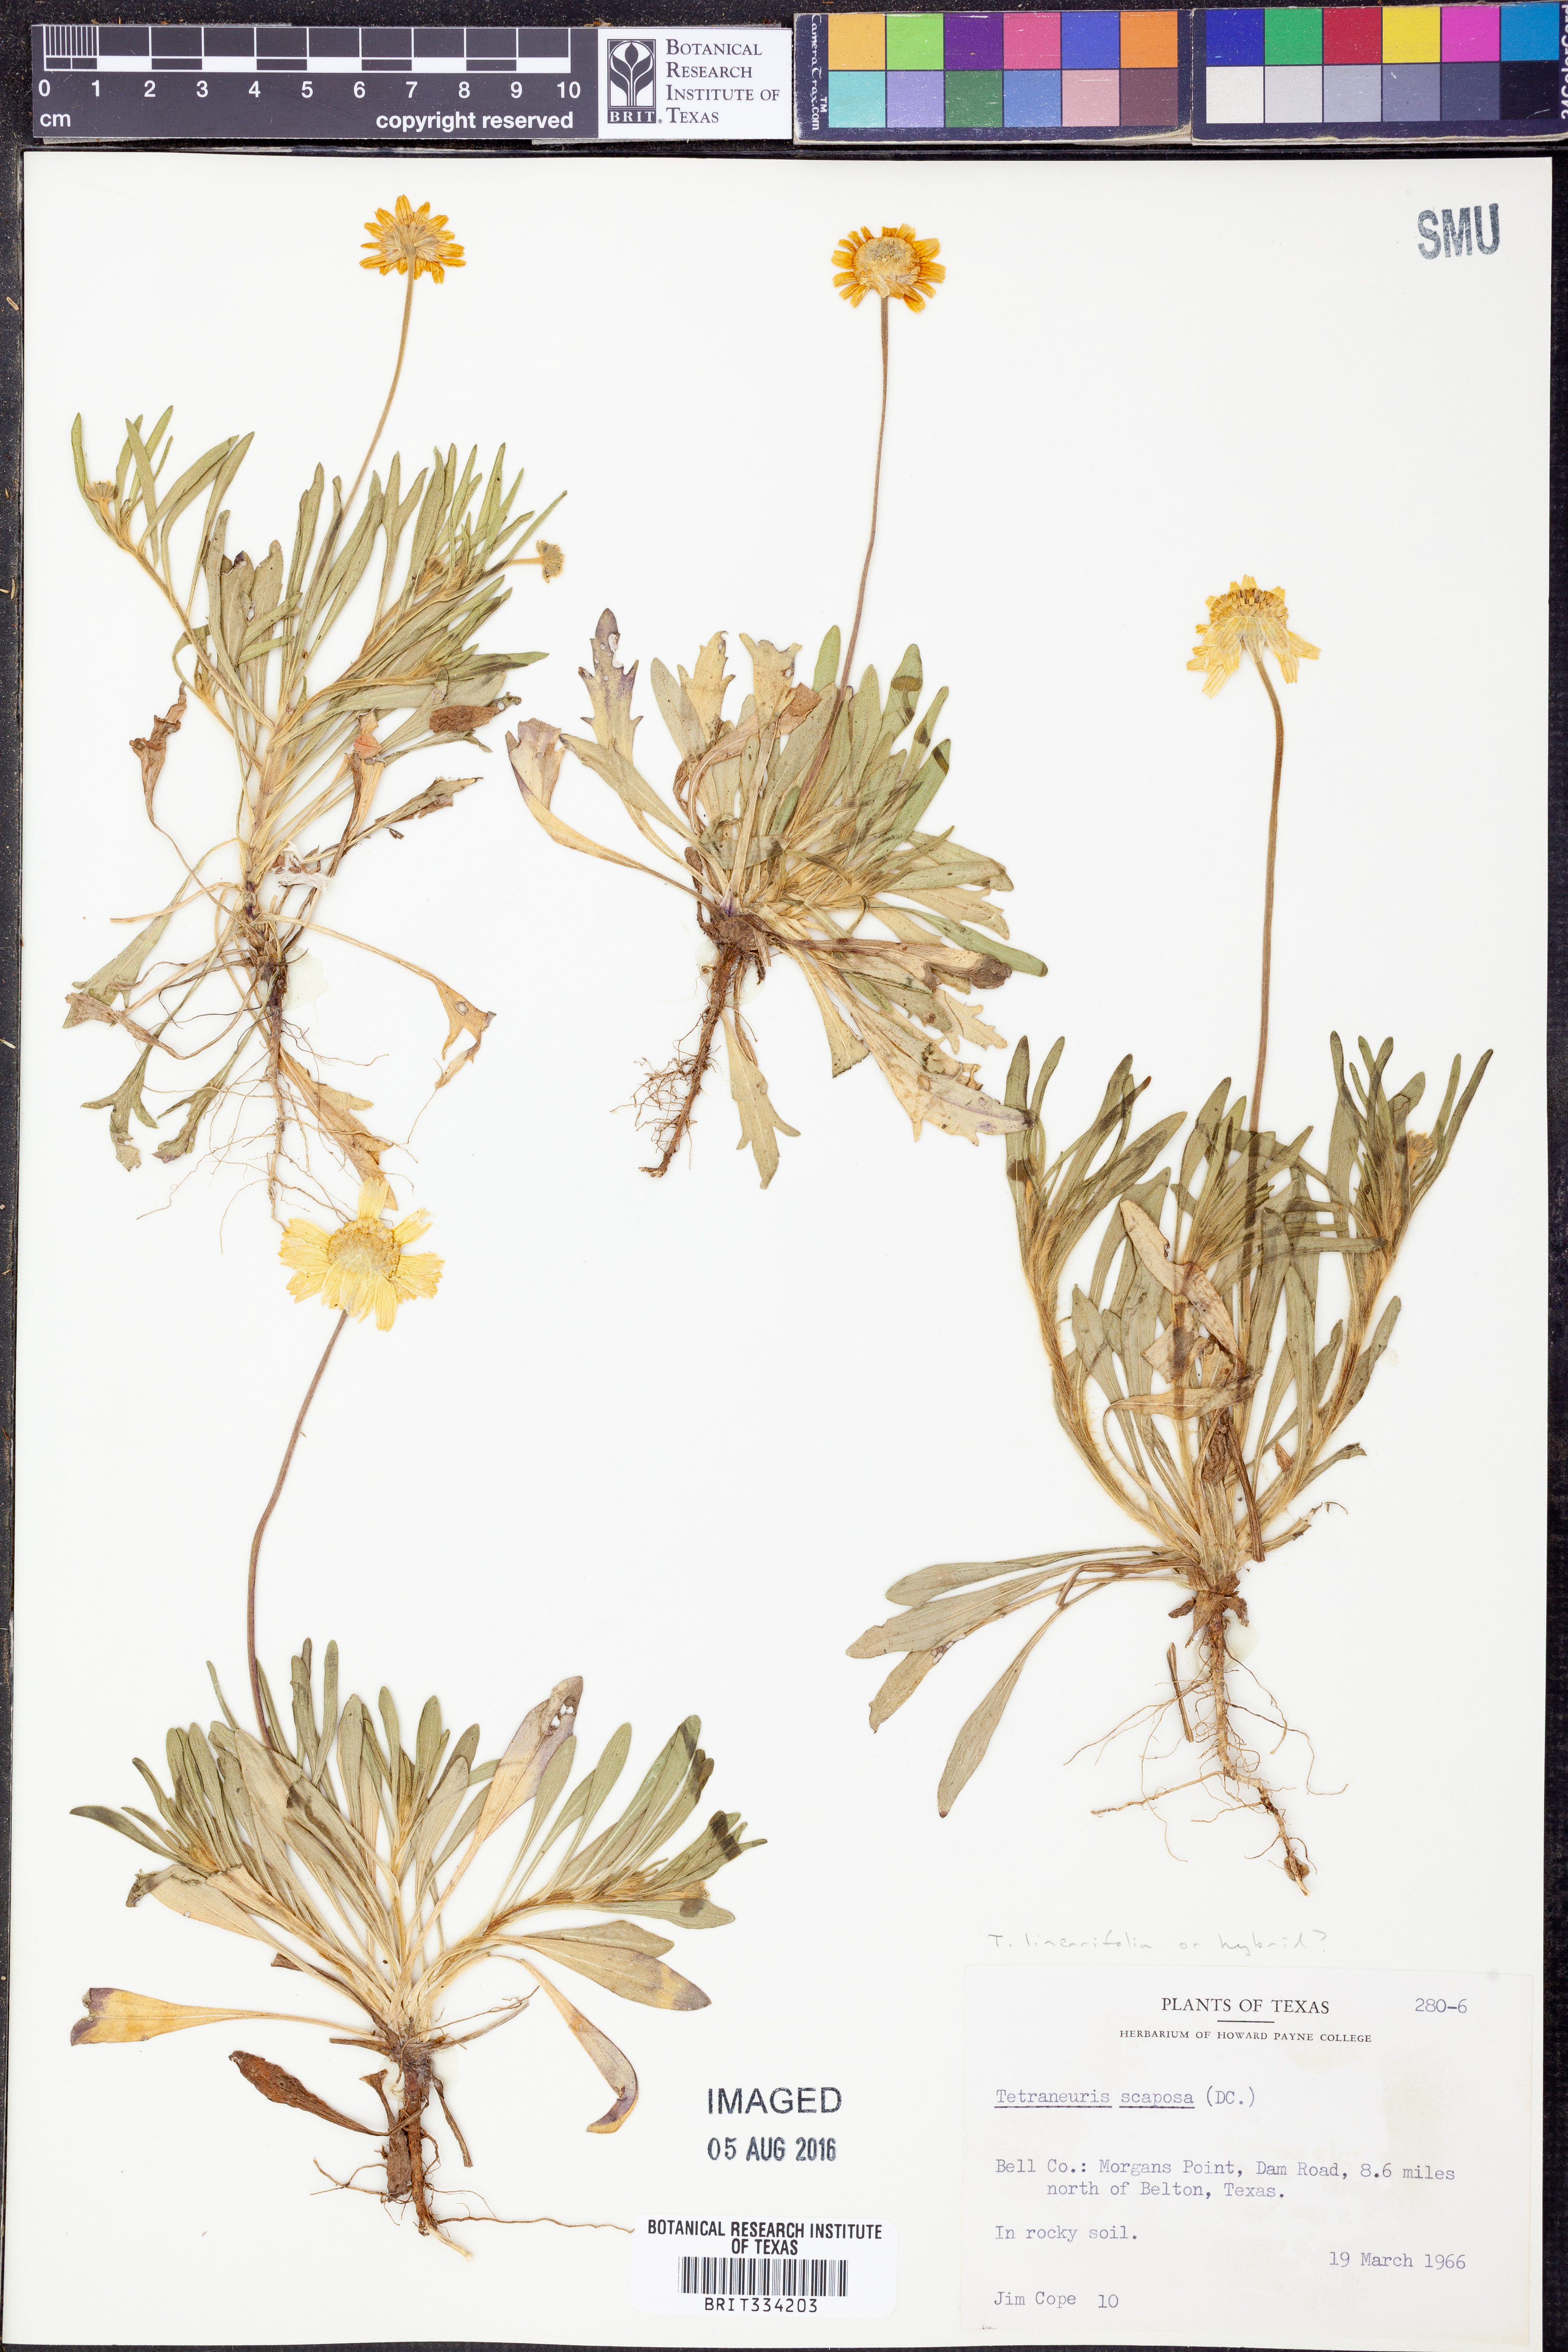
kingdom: Plantae
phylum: Tracheophyta
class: Magnoliopsida
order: Asterales
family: Asteraceae
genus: Tetraneuris
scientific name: Tetraneuris linearifolia
